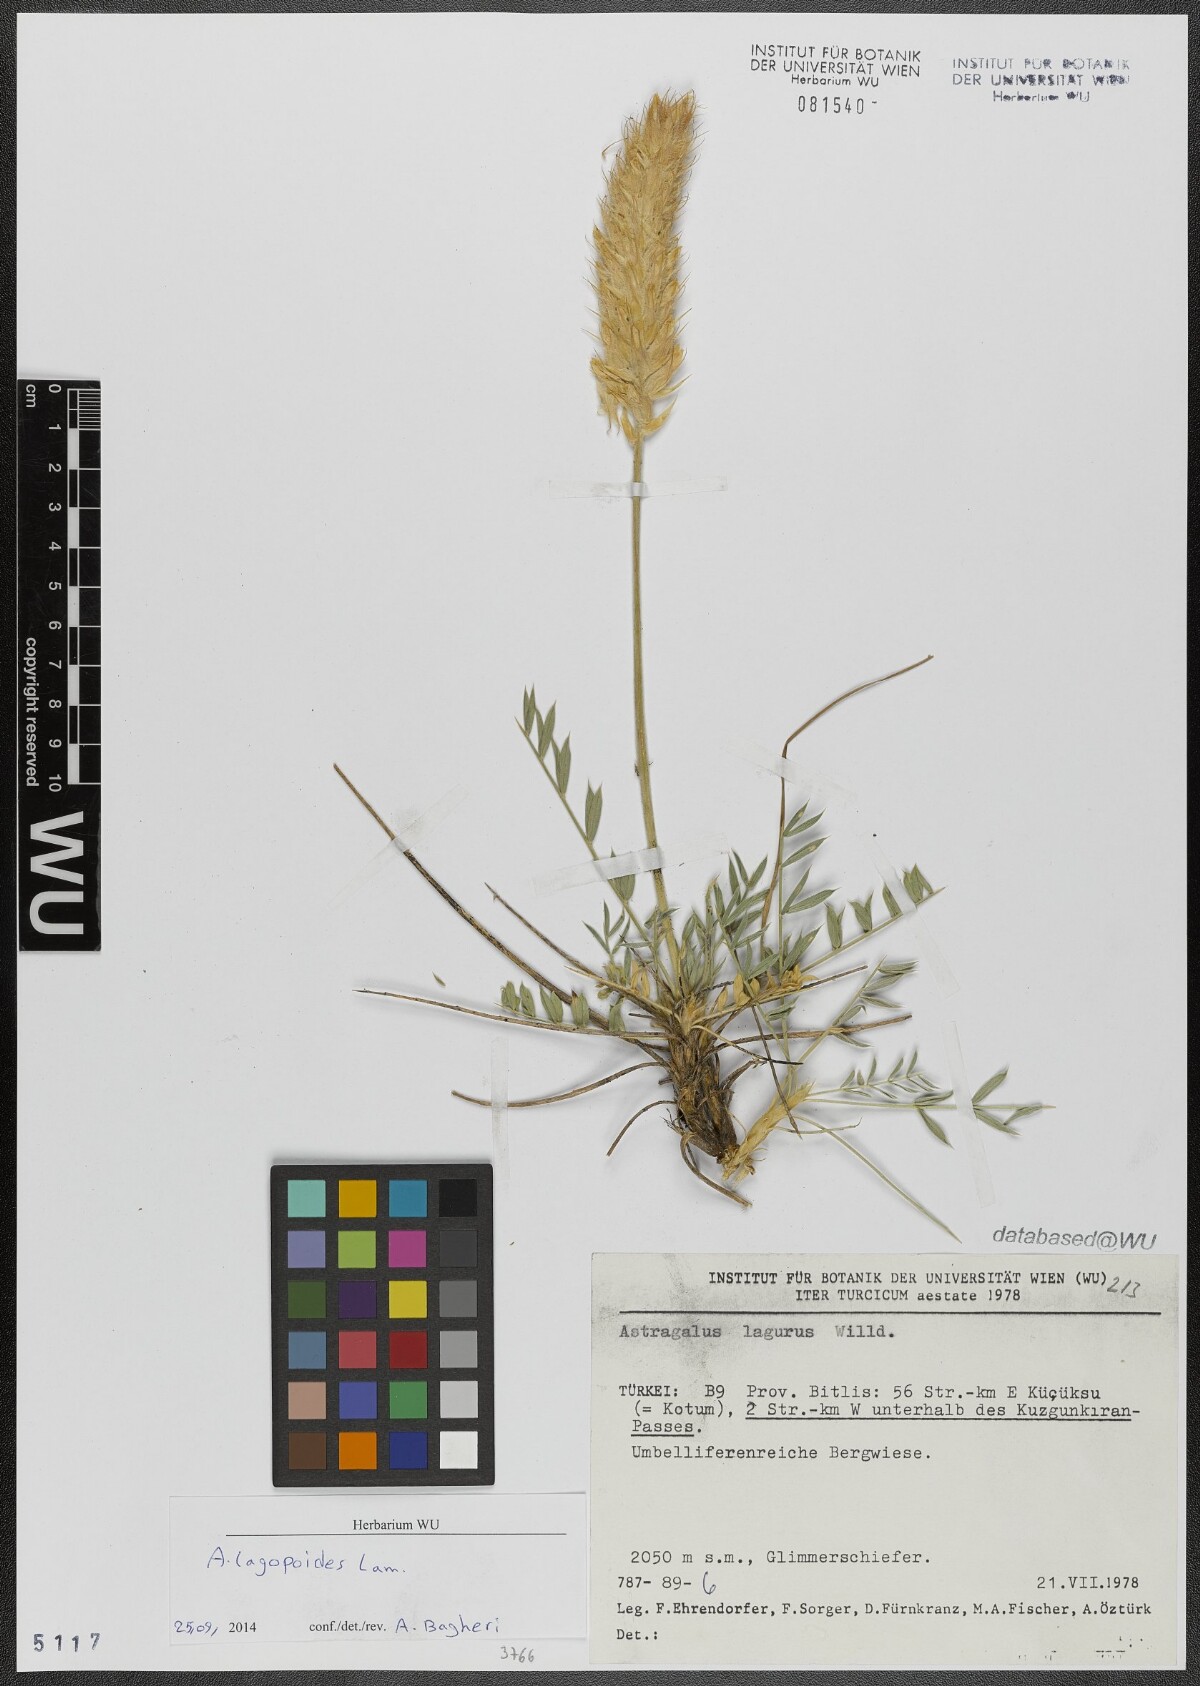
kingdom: Plantae
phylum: Tracheophyta
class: Magnoliopsida
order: Fabales
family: Fabaceae
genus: Astragalus
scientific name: Astragalus lagopoides
